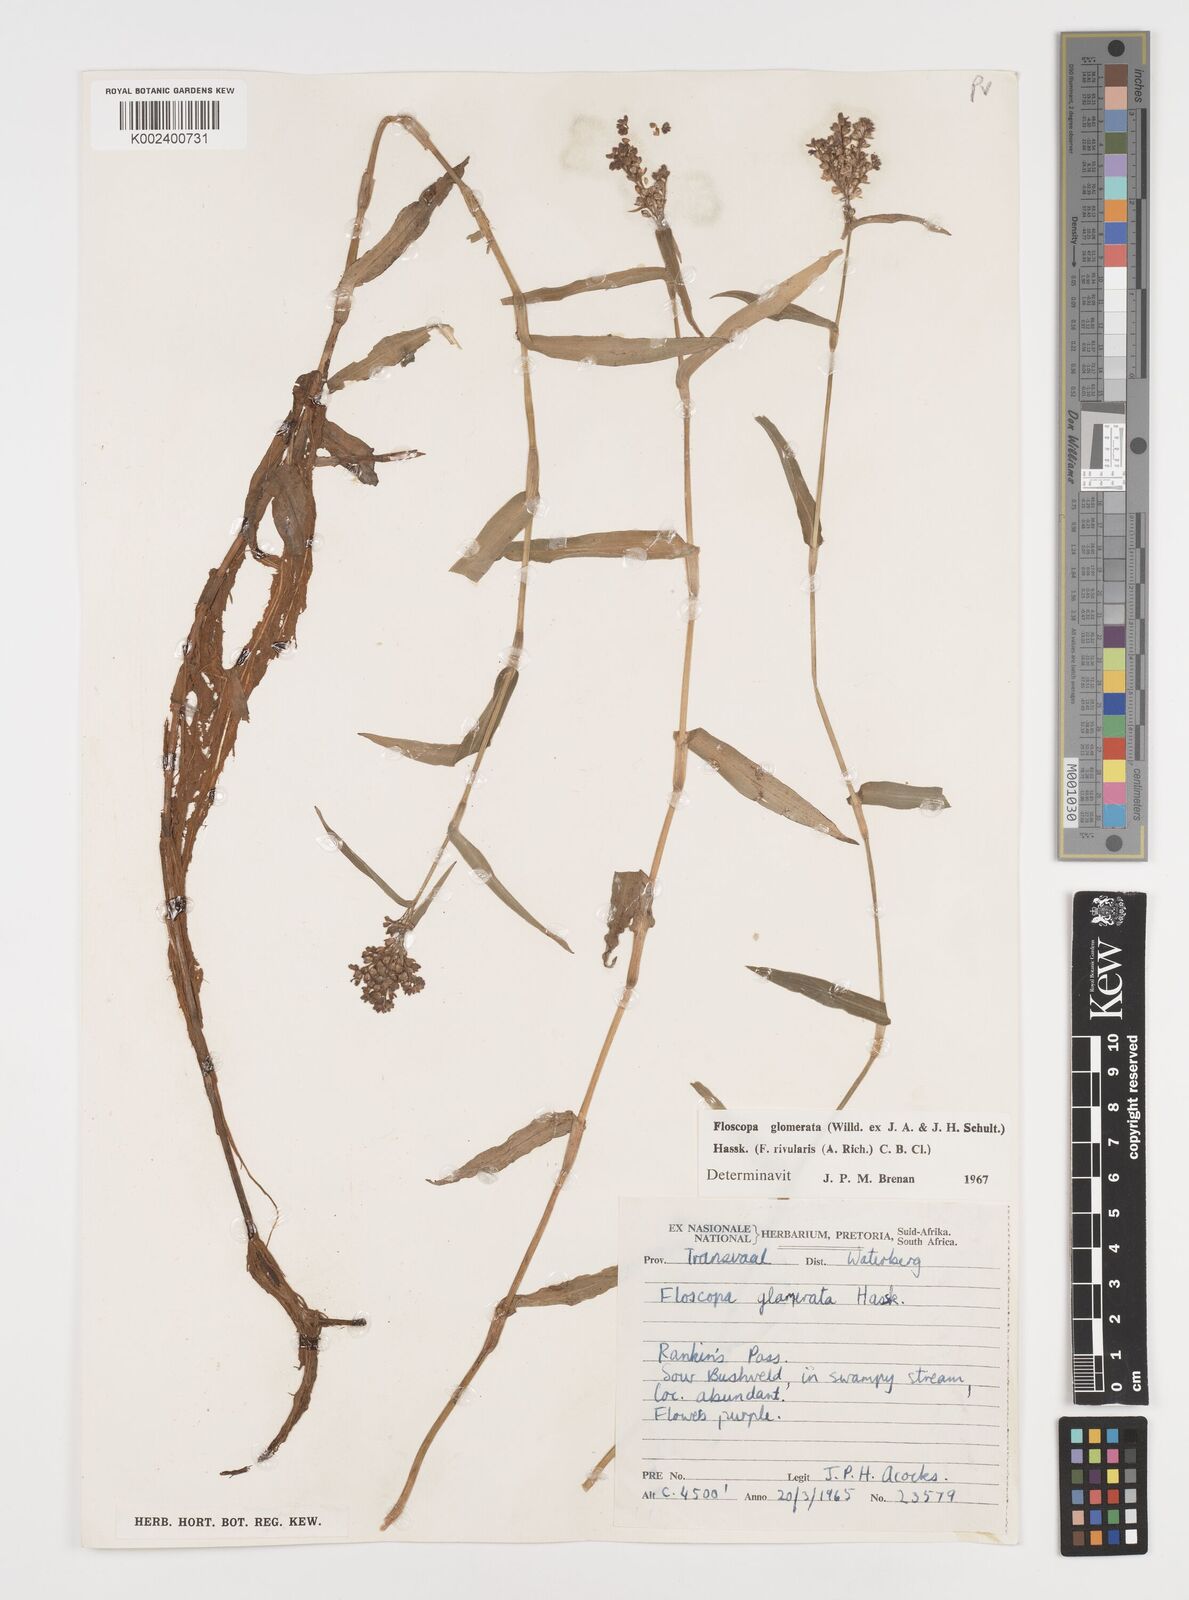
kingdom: Plantae
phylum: Tracheophyta
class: Liliopsida
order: Commelinales
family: Commelinaceae
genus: Floscopa
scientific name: Floscopa glomerata
